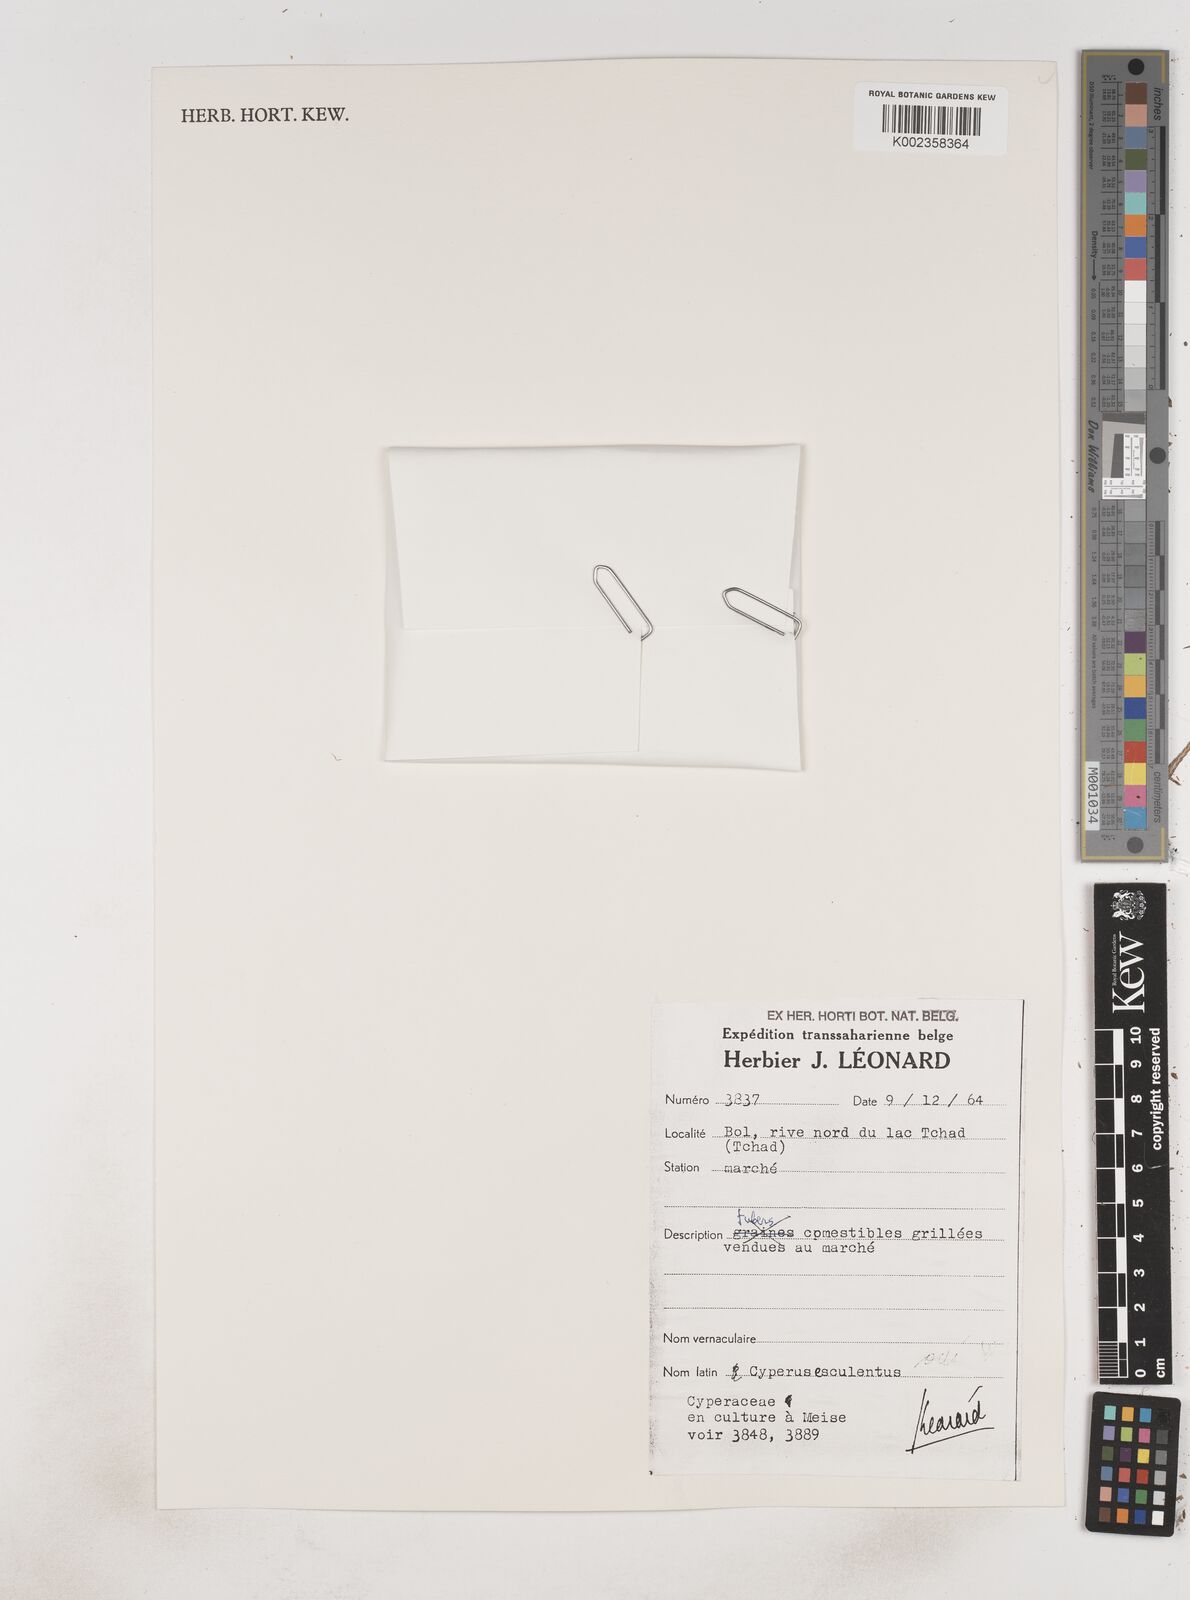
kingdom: Plantae
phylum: Tracheophyta
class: Liliopsida
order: Poales
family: Cyperaceae
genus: Cyperus
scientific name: Cyperus esculentus
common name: Yellow nutsedge
